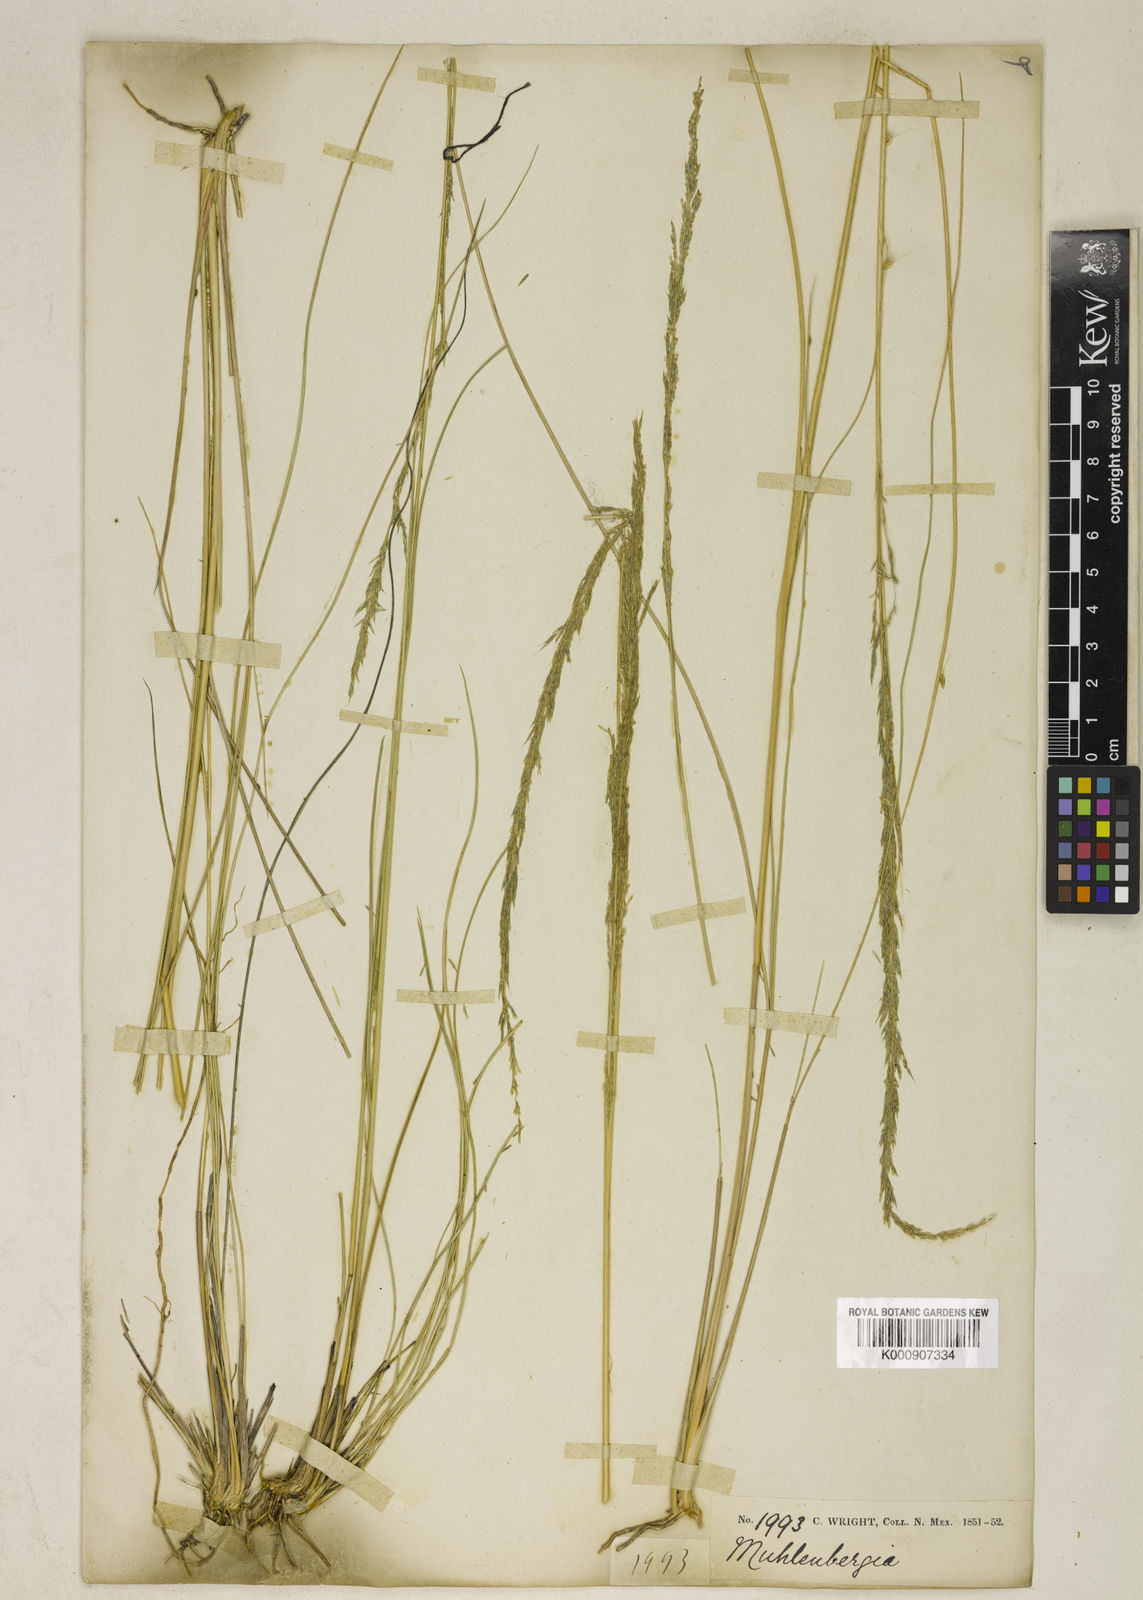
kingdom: Plantae
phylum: Tracheophyta
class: Liliopsida
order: Poales
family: Poaceae
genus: Muhlenbergia
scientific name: Muhlenbergia dubia
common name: Pine muhly
